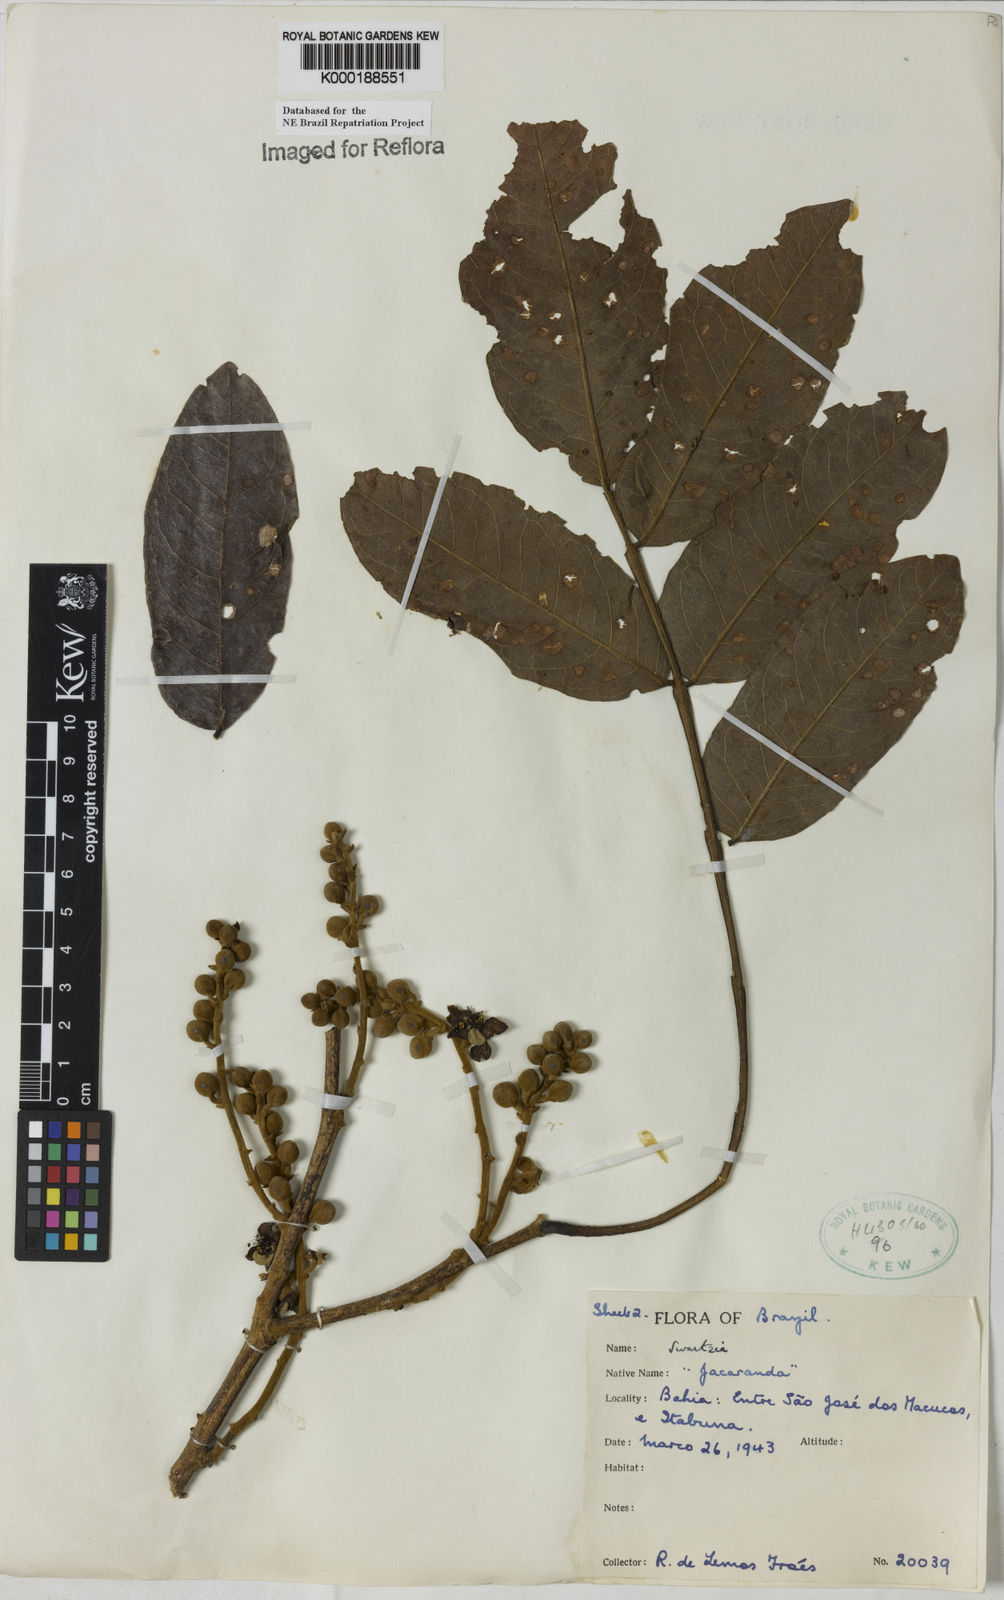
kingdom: Plantae
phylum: Tracheophyta
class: Magnoliopsida
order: Fabales
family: Fabaceae
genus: Swartzia
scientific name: Swartzia macrostachya
